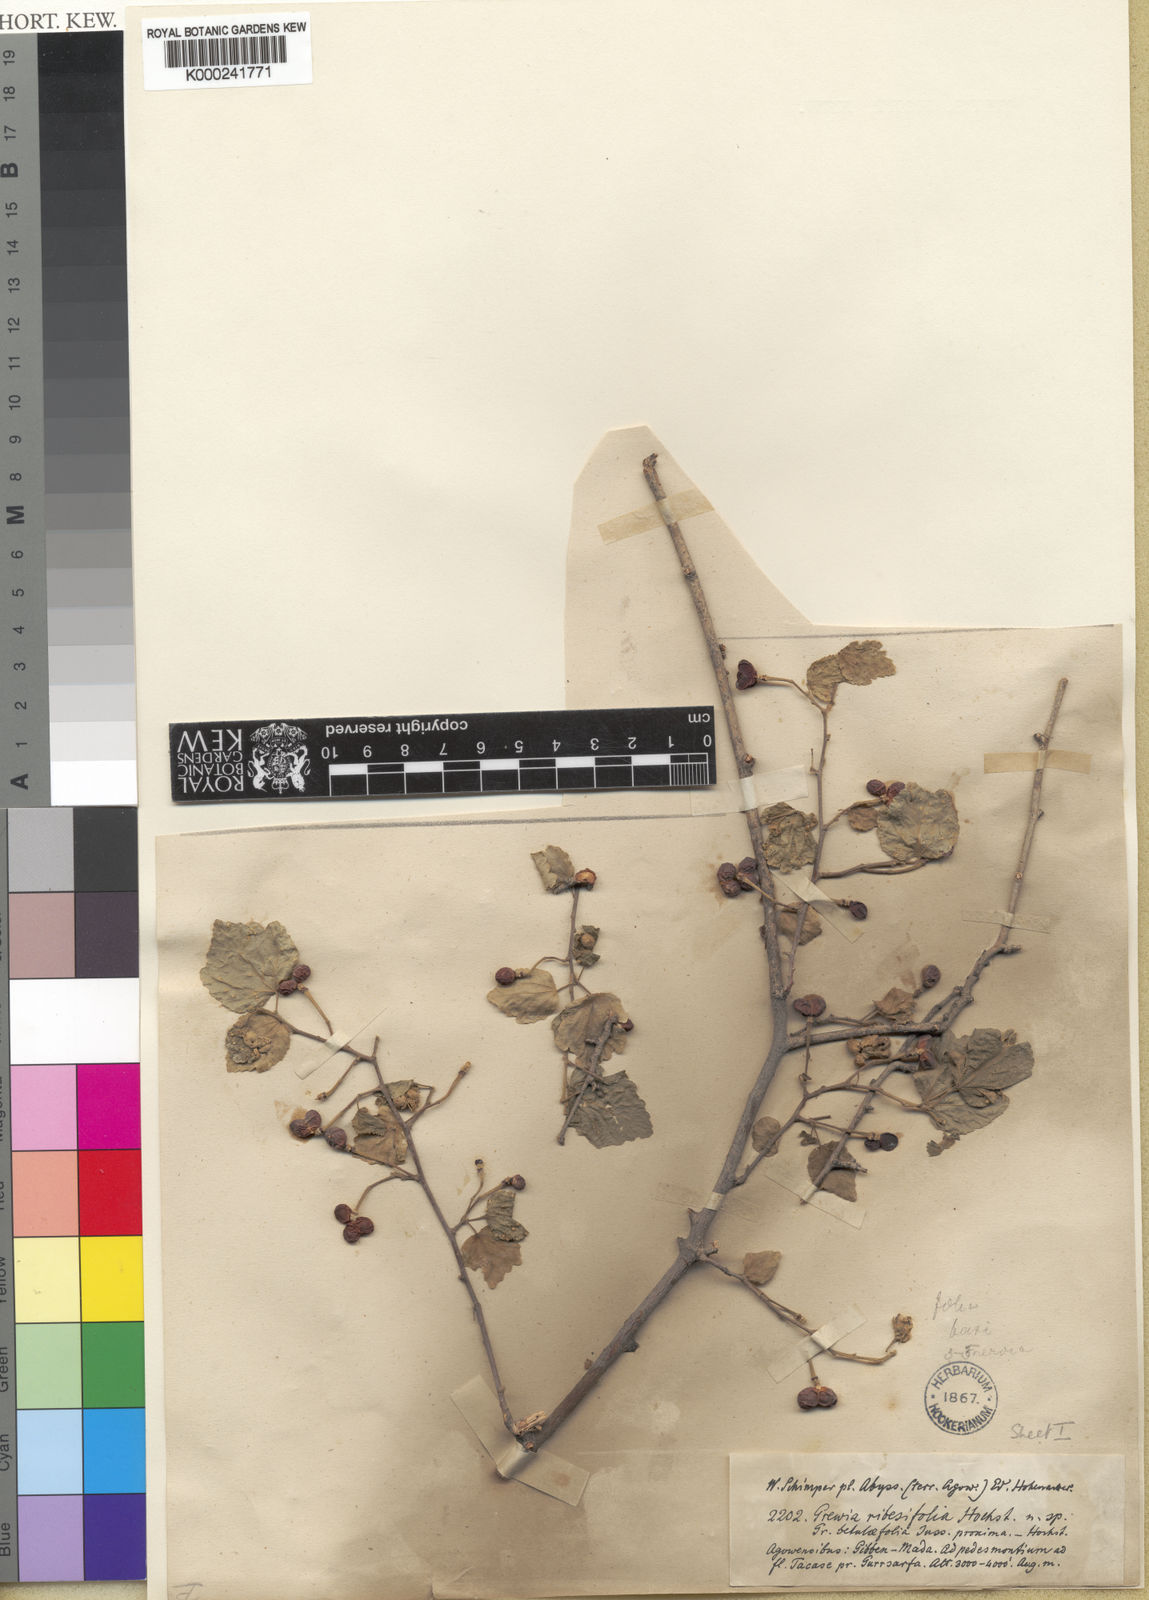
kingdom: Plantae
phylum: Tracheophyta
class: Magnoliopsida
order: Malvales
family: Malvaceae
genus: Grewia
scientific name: Grewia tenax
